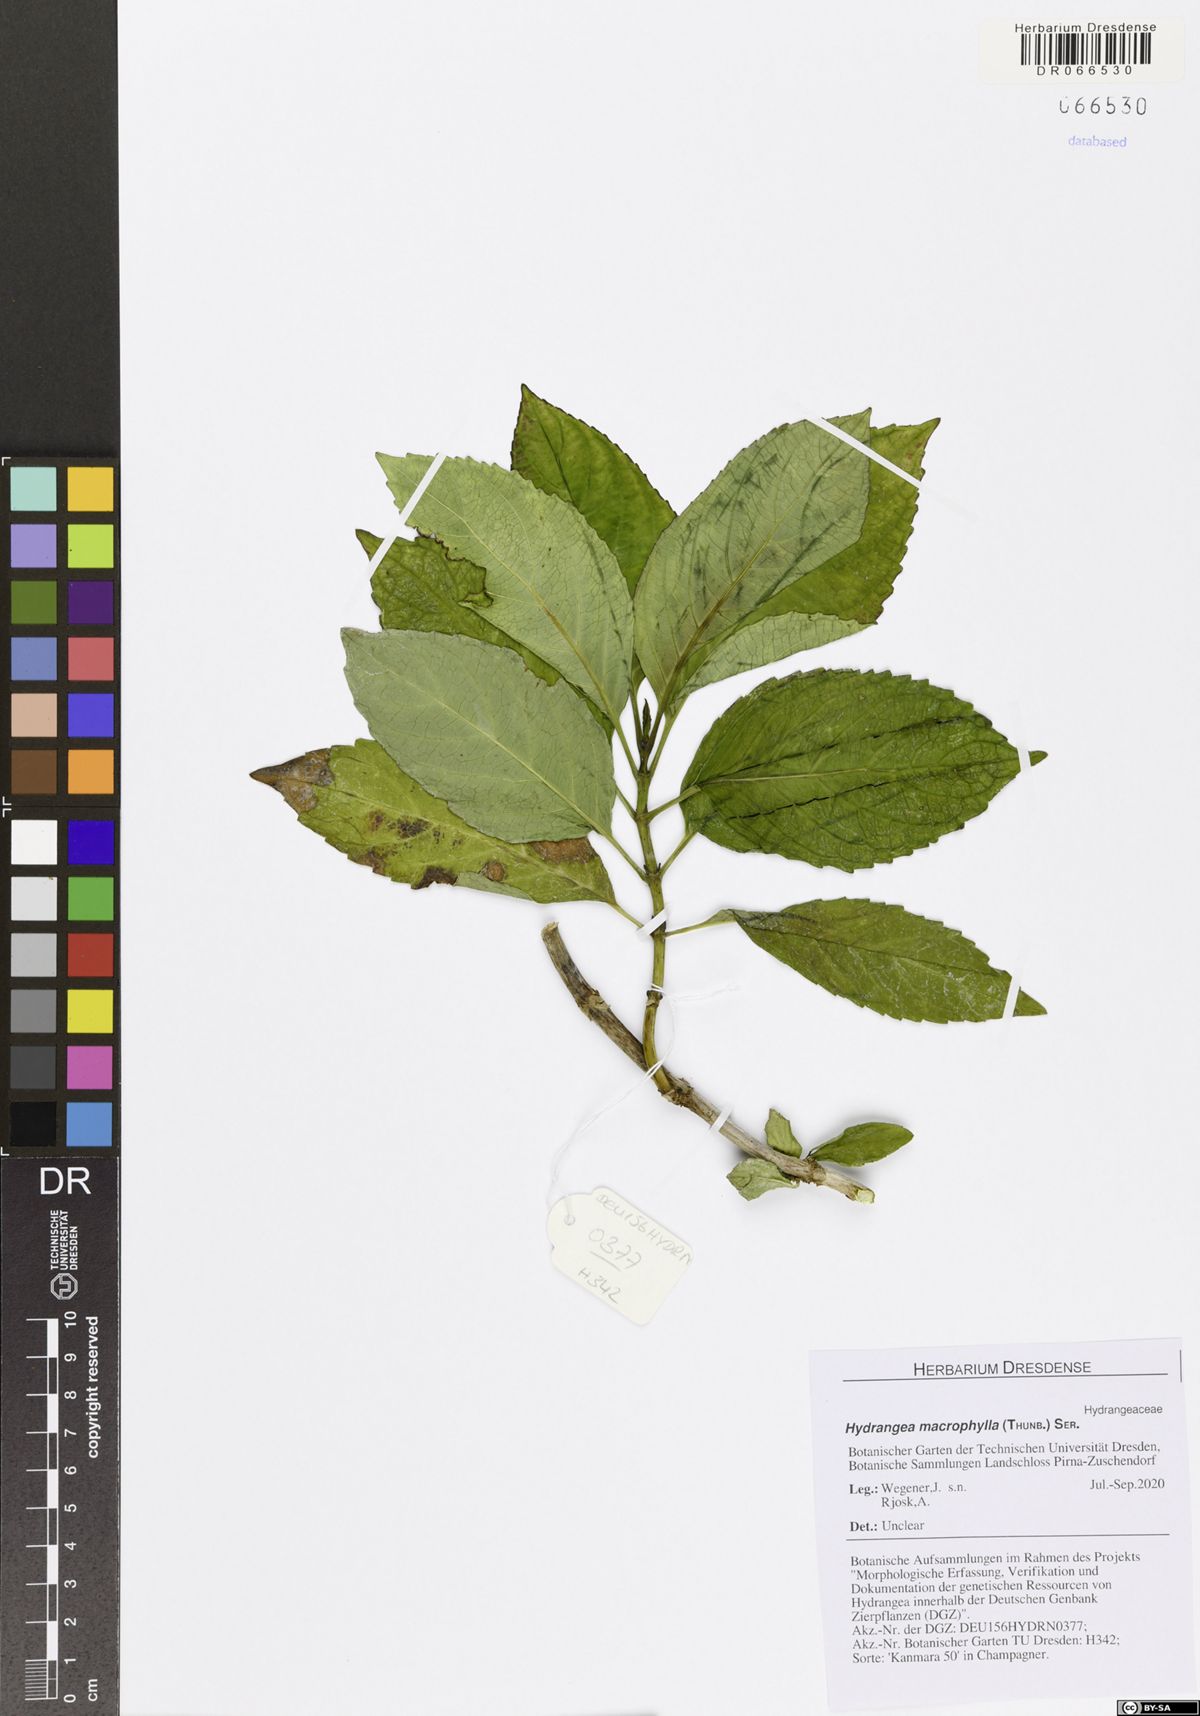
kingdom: Plantae
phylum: Tracheophyta
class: Magnoliopsida
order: Cornales
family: Hydrangeaceae
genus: Hydrangea
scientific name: Hydrangea macrophylla
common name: Hydrangea
